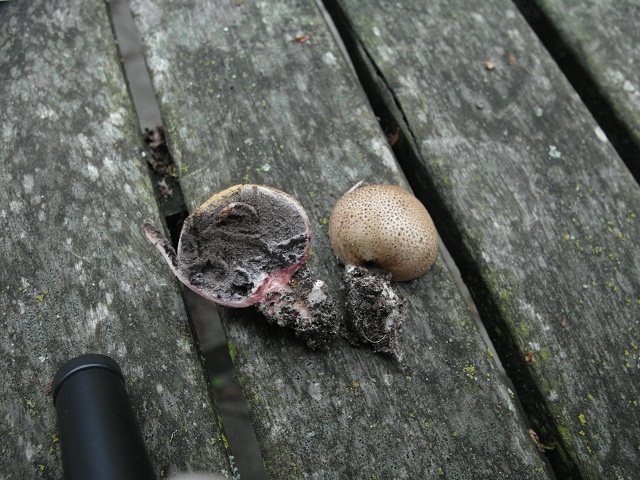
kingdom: Fungi
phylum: Basidiomycota
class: Agaricomycetes
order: Boletales
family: Sclerodermataceae
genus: Scleroderma
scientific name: Scleroderma areolatum
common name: plettet bruskbold
